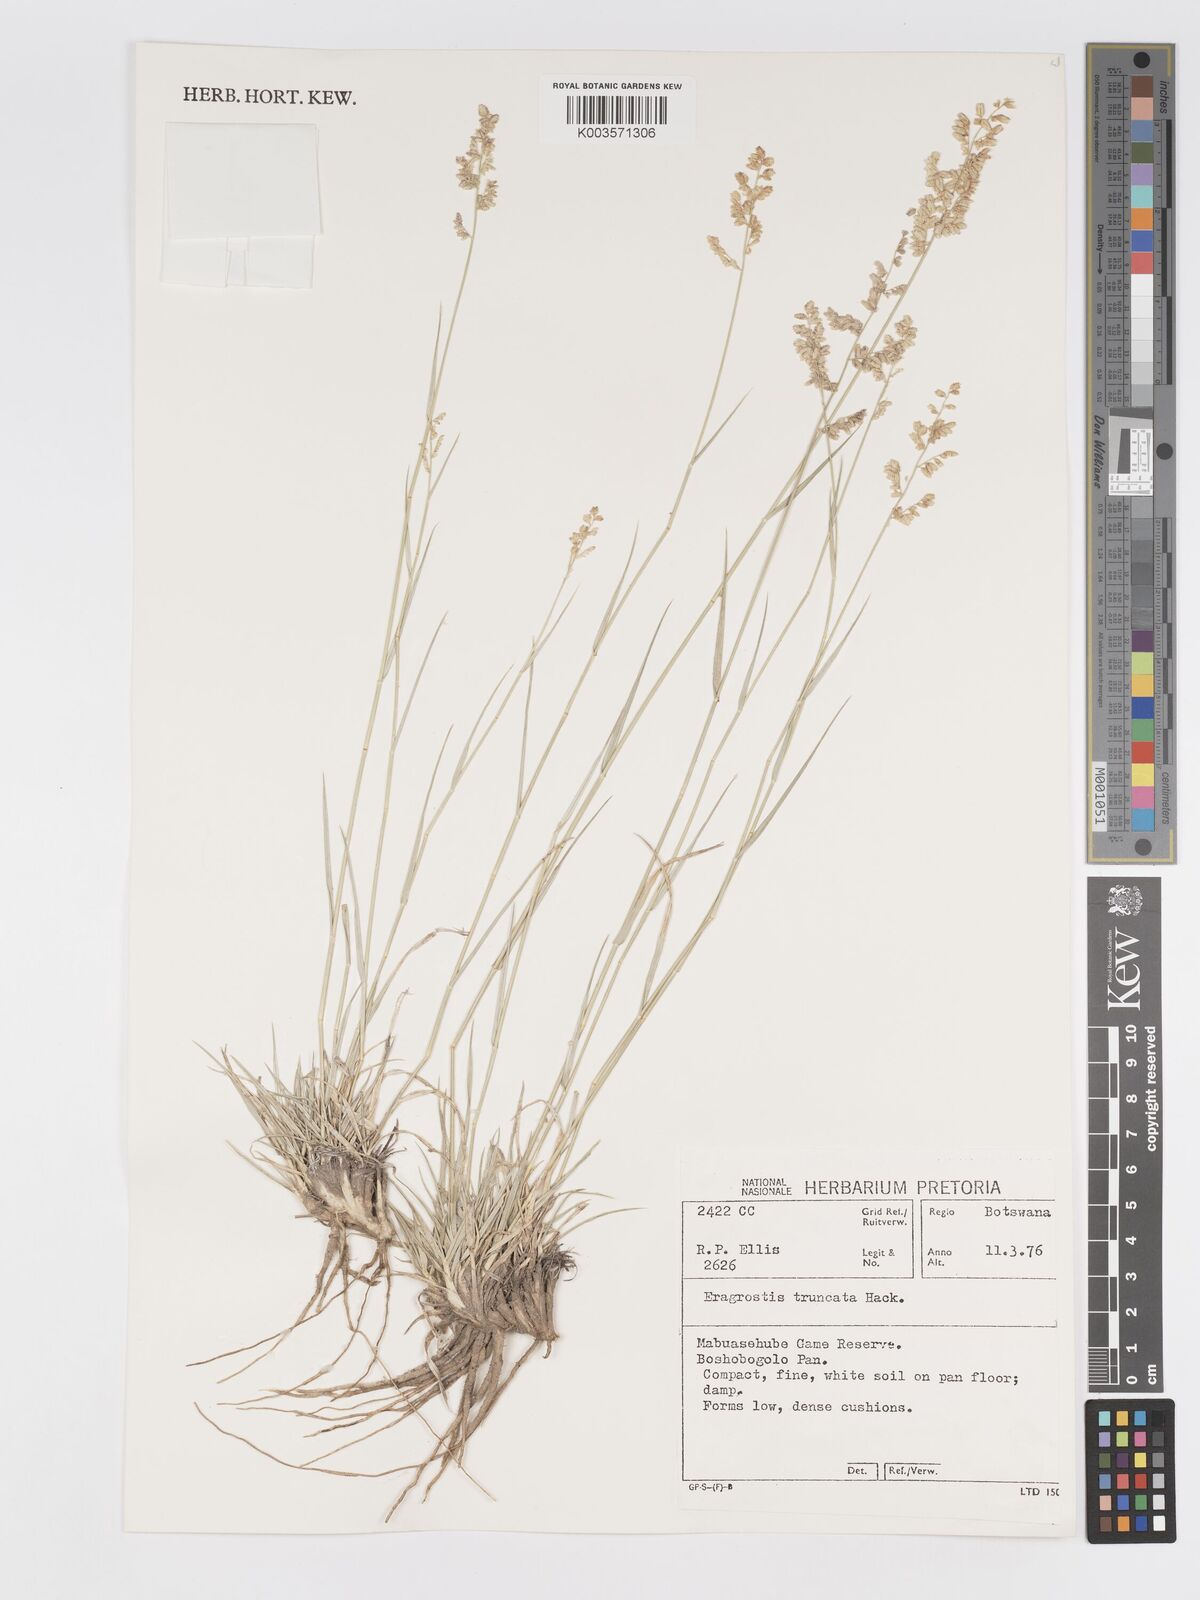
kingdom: Plantae
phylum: Tracheophyta
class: Liliopsida
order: Poales
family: Poaceae
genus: Eragrostis
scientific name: Eragrostis truncata
